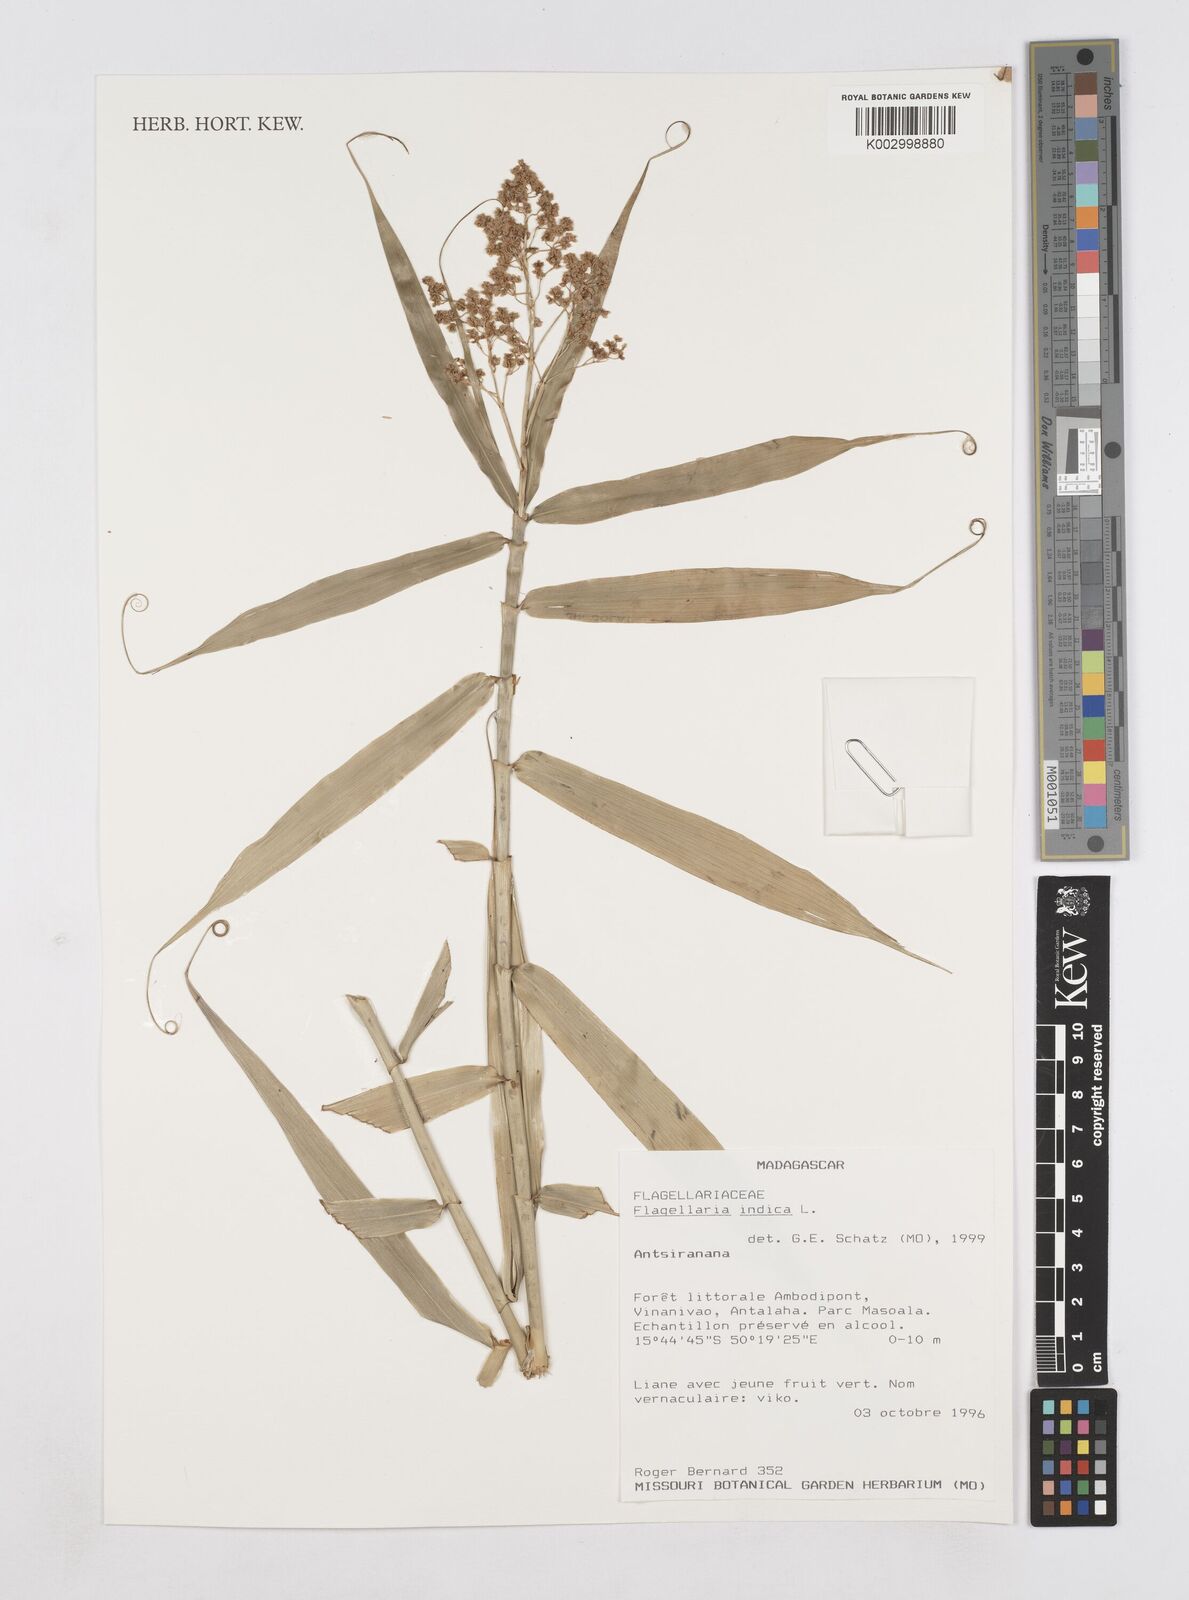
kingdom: Plantae
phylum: Tracheophyta
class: Liliopsida
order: Poales
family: Flagellariaceae
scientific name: Flagellariaceae
